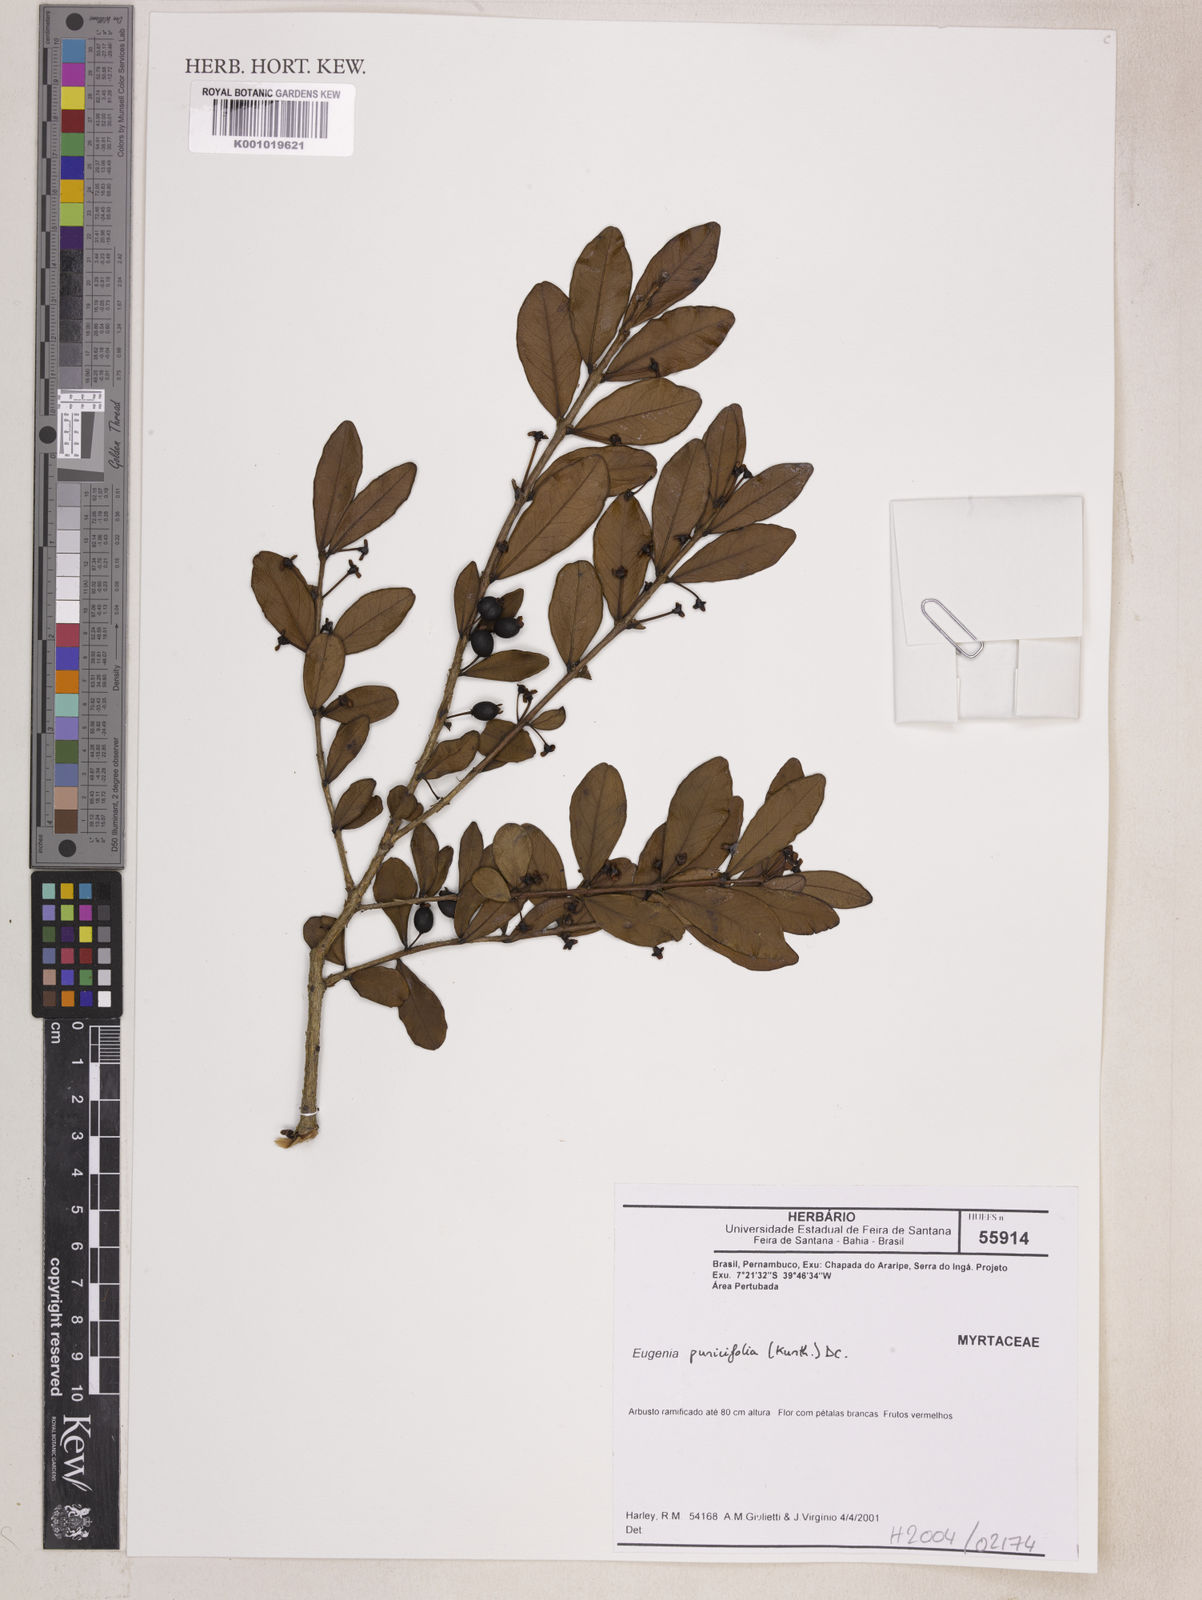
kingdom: Plantae
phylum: Tracheophyta
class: Magnoliopsida
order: Myrtales
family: Myrtaceae
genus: Eugenia
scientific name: Eugenia punicifolia
